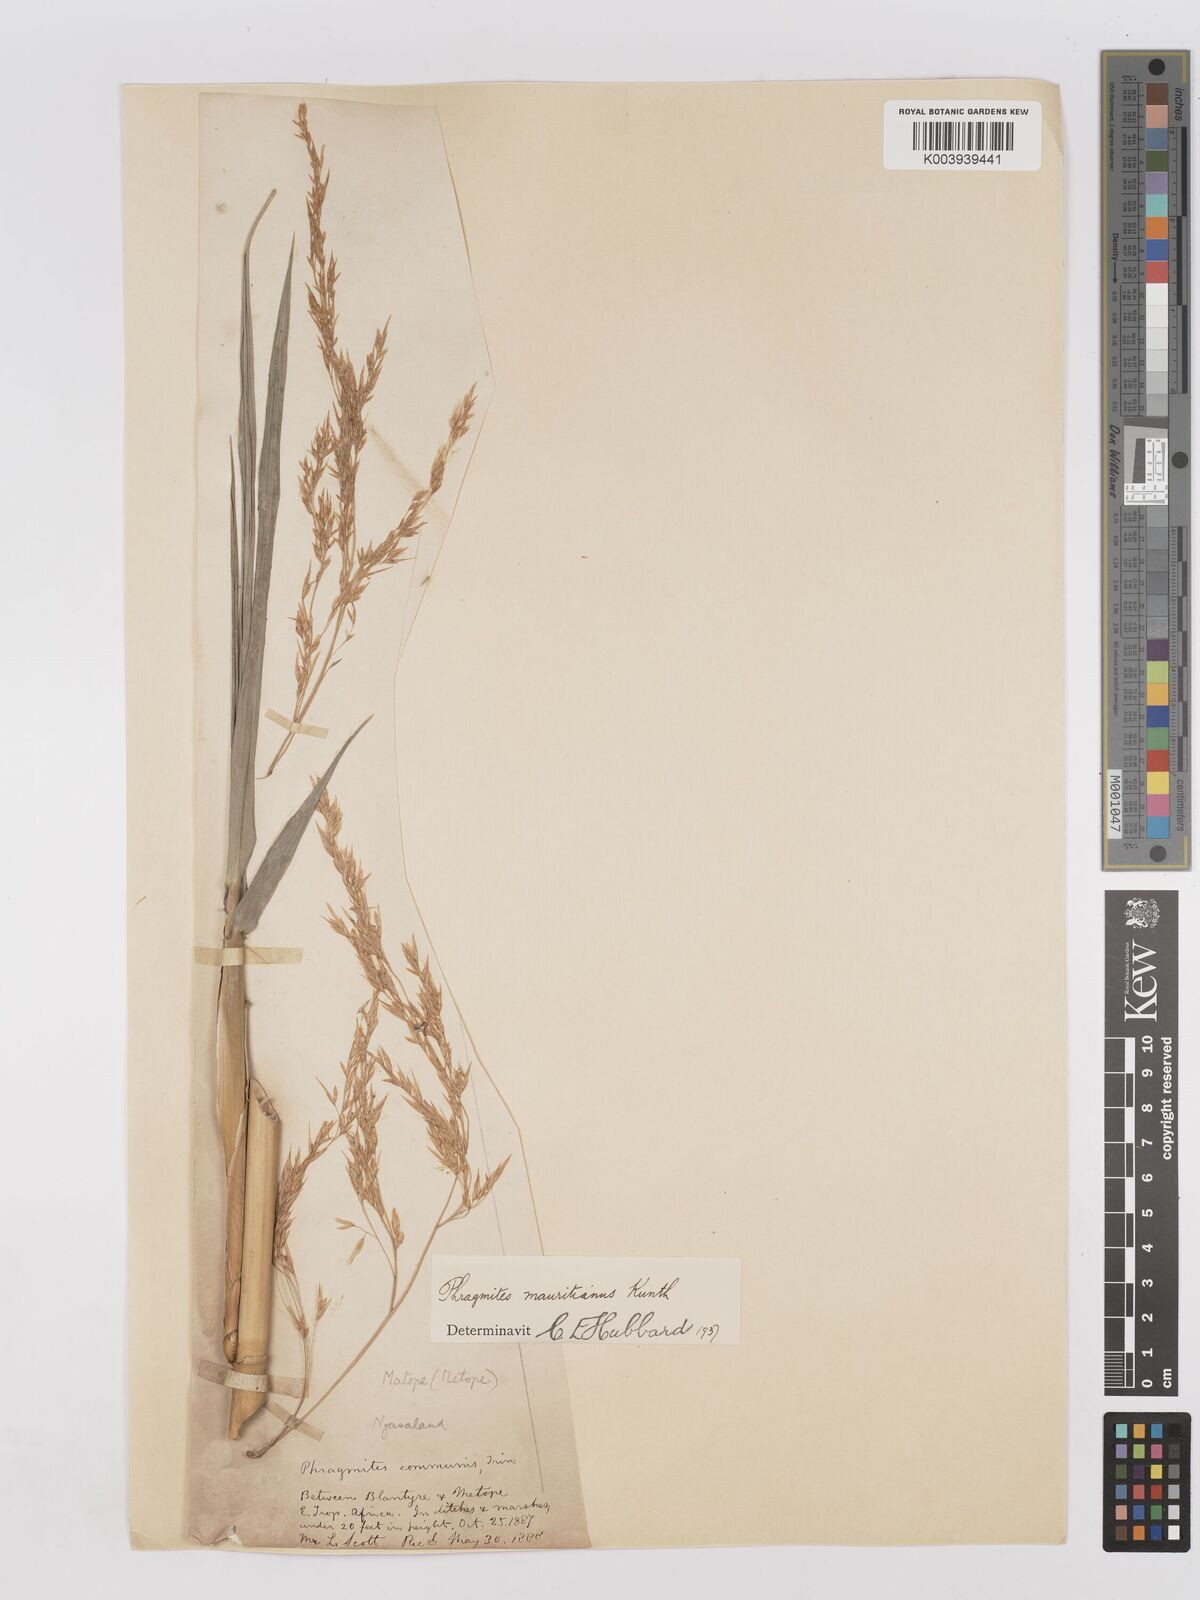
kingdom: Plantae
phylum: Tracheophyta
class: Liliopsida
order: Poales
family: Poaceae
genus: Phragmites
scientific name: Phragmites mauritianus
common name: Reed grass
